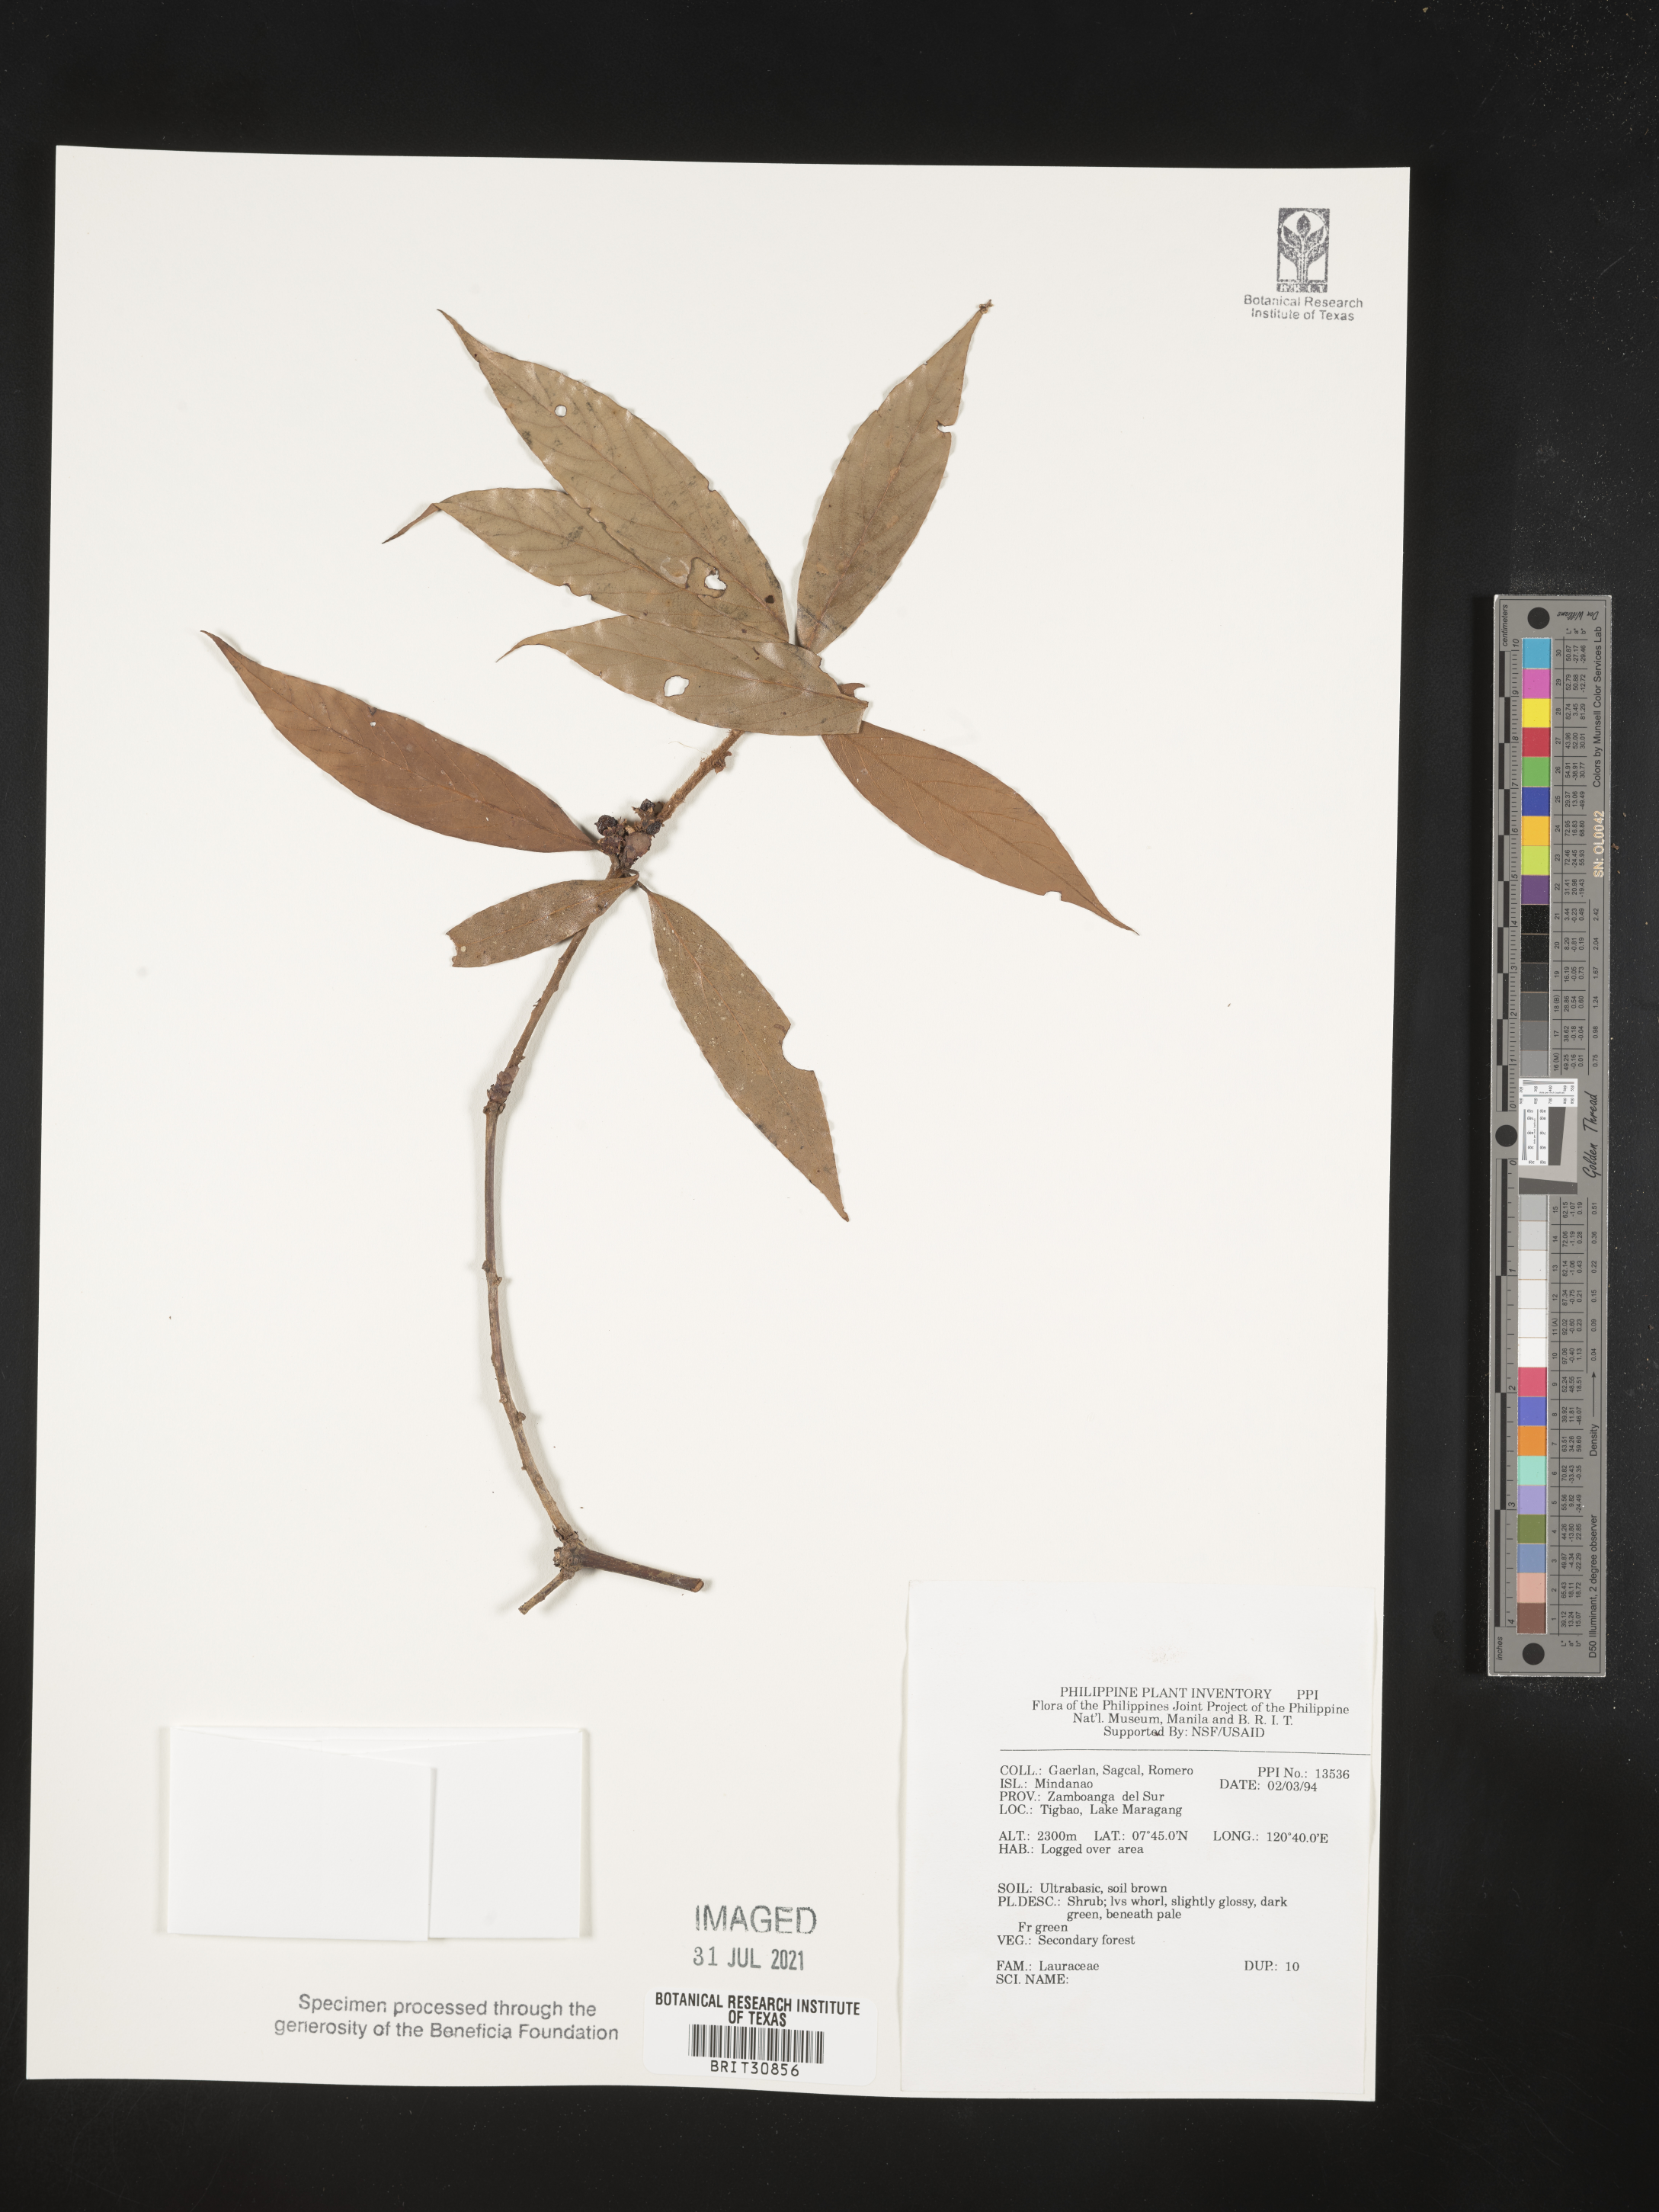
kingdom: Plantae
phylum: Tracheophyta
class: Magnoliopsida
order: Laurales
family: Lauraceae
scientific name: Lauraceae
